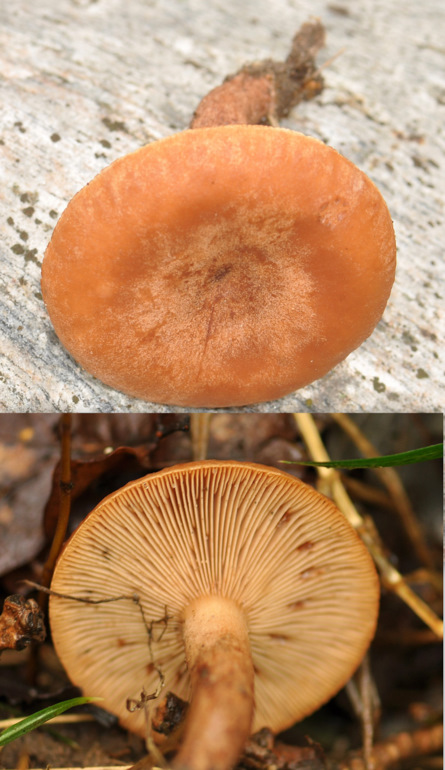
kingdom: Fungi
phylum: Basidiomycota
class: Agaricomycetes
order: Russulales
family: Russulaceae
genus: Lactarius
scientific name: Lactarius quietus
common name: ege-mælkehat
